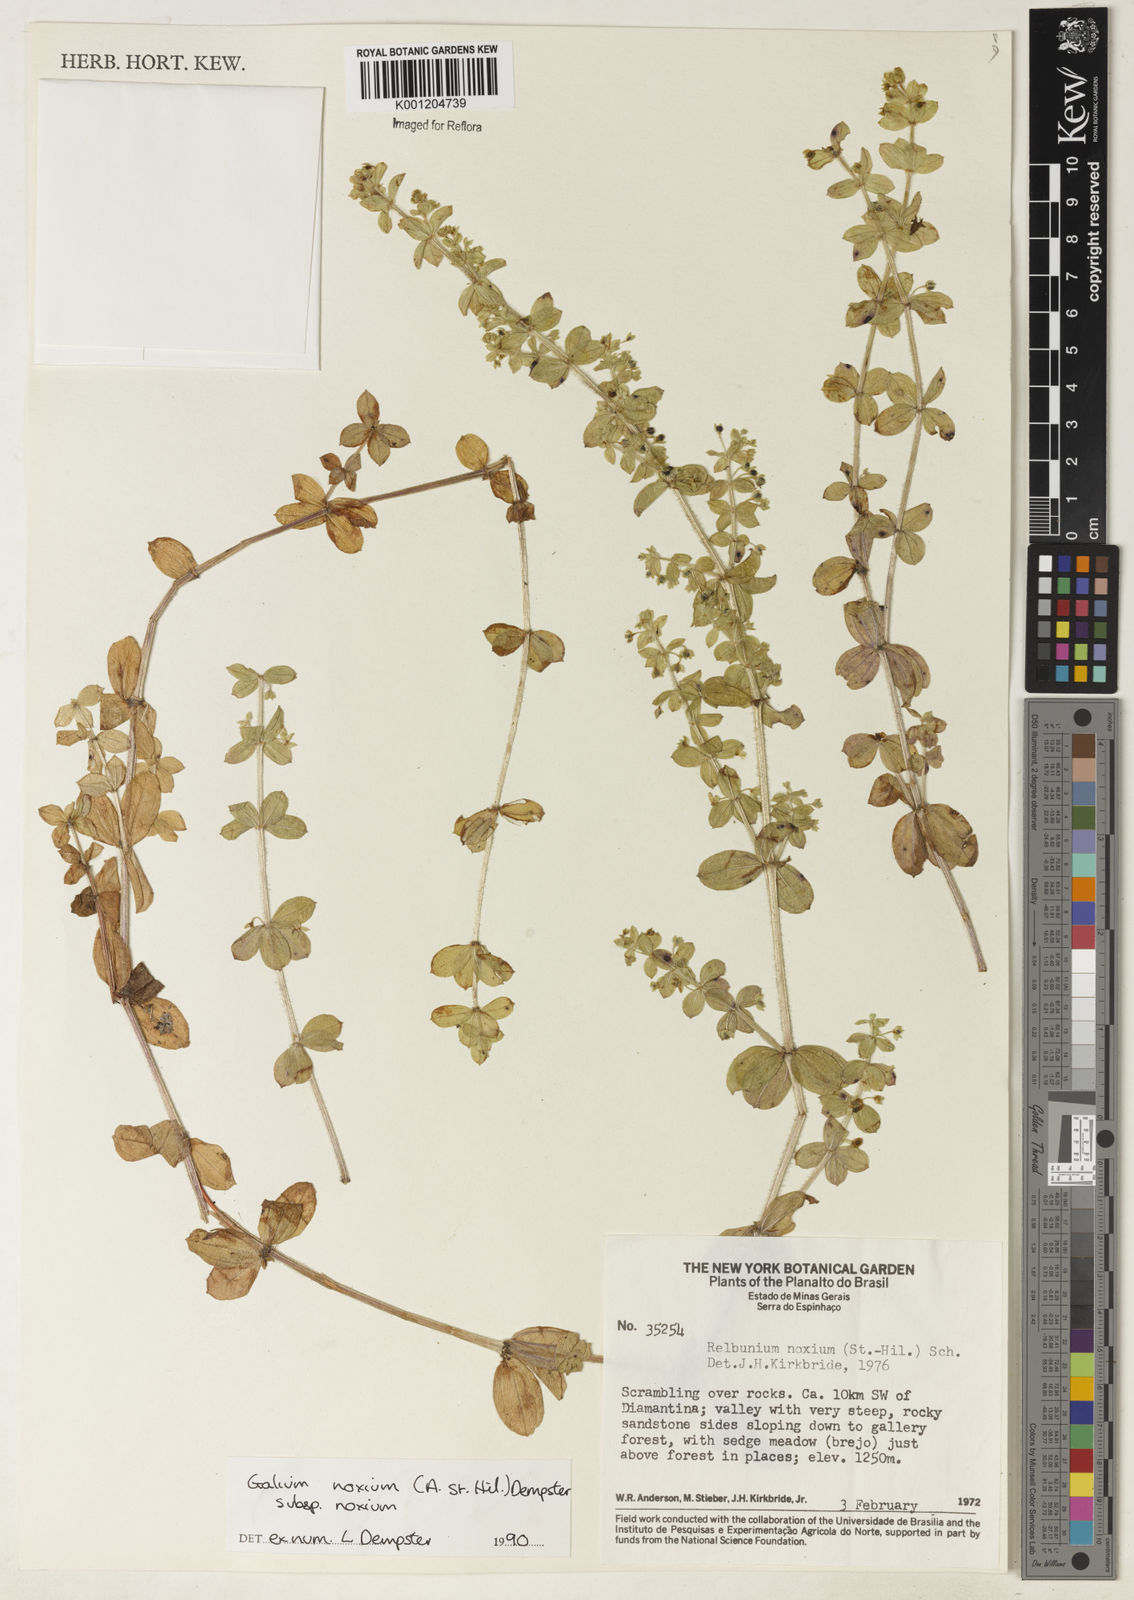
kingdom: Plantae
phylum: Tracheophyta
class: Magnoliopsida
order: Gentianales
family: Rubiaceae
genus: Galium
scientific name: Galium noxium
